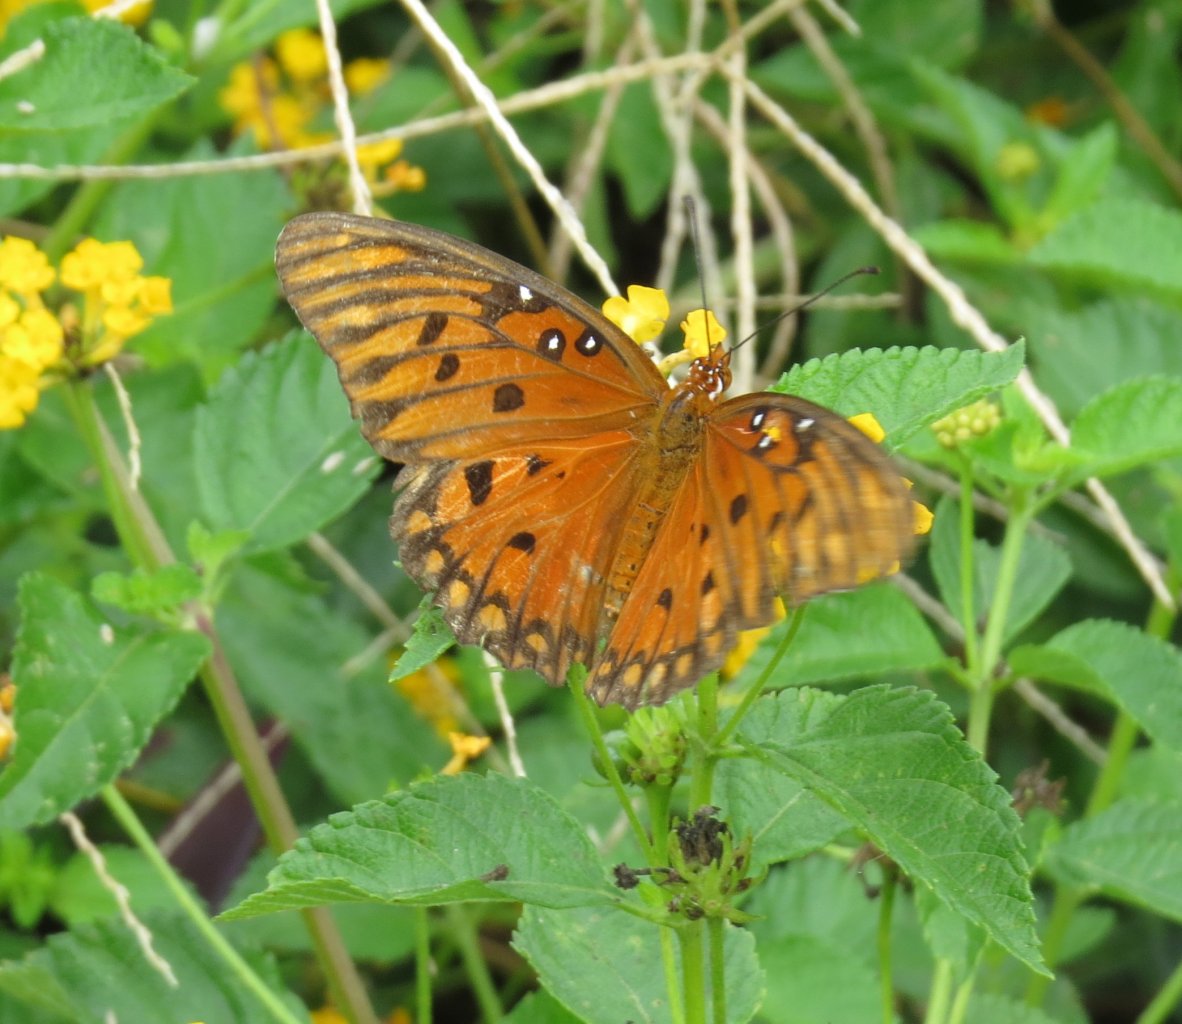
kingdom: Animalia
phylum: Arthropoda
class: Insecta
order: Lepidoptera
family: Nymphalidae
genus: Dione
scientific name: Dione vanillae
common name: Gulf Fritillary
